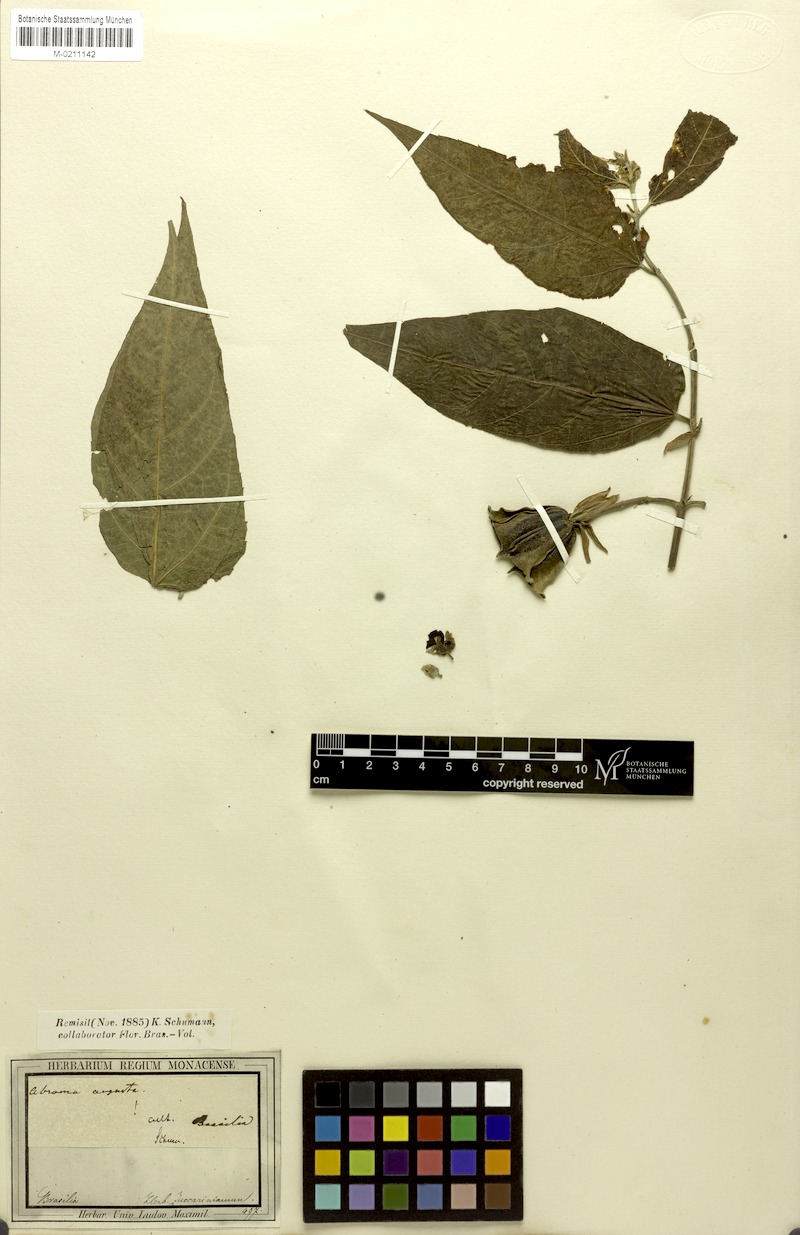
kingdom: Plantae
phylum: Tracheophyta
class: Magnoliopsida
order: Malvales
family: Malvaceae
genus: Abroma
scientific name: Abroma augustum
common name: Devil's-cotton
